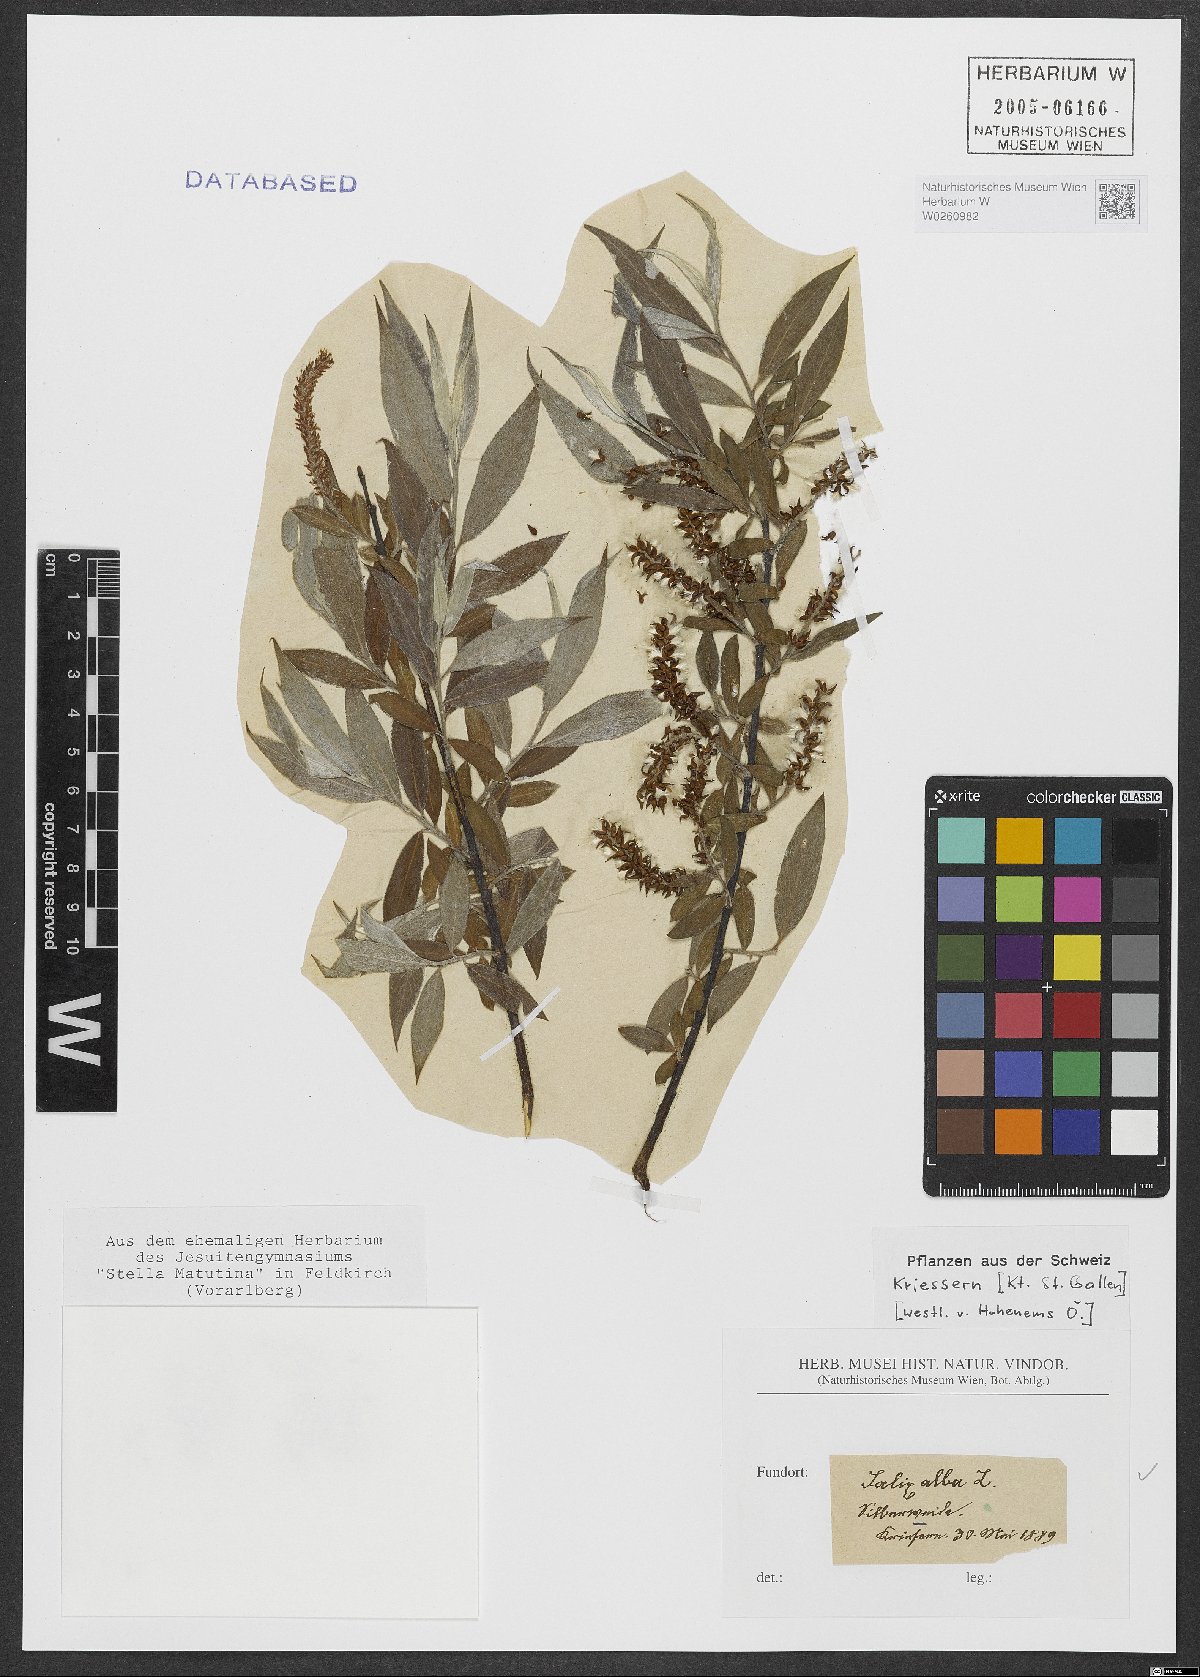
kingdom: Plantae
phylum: Tracheophyta
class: Magnoliopsida
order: Malpighiales
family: Salicaceae
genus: Salix
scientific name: Salix alba
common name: White willow
